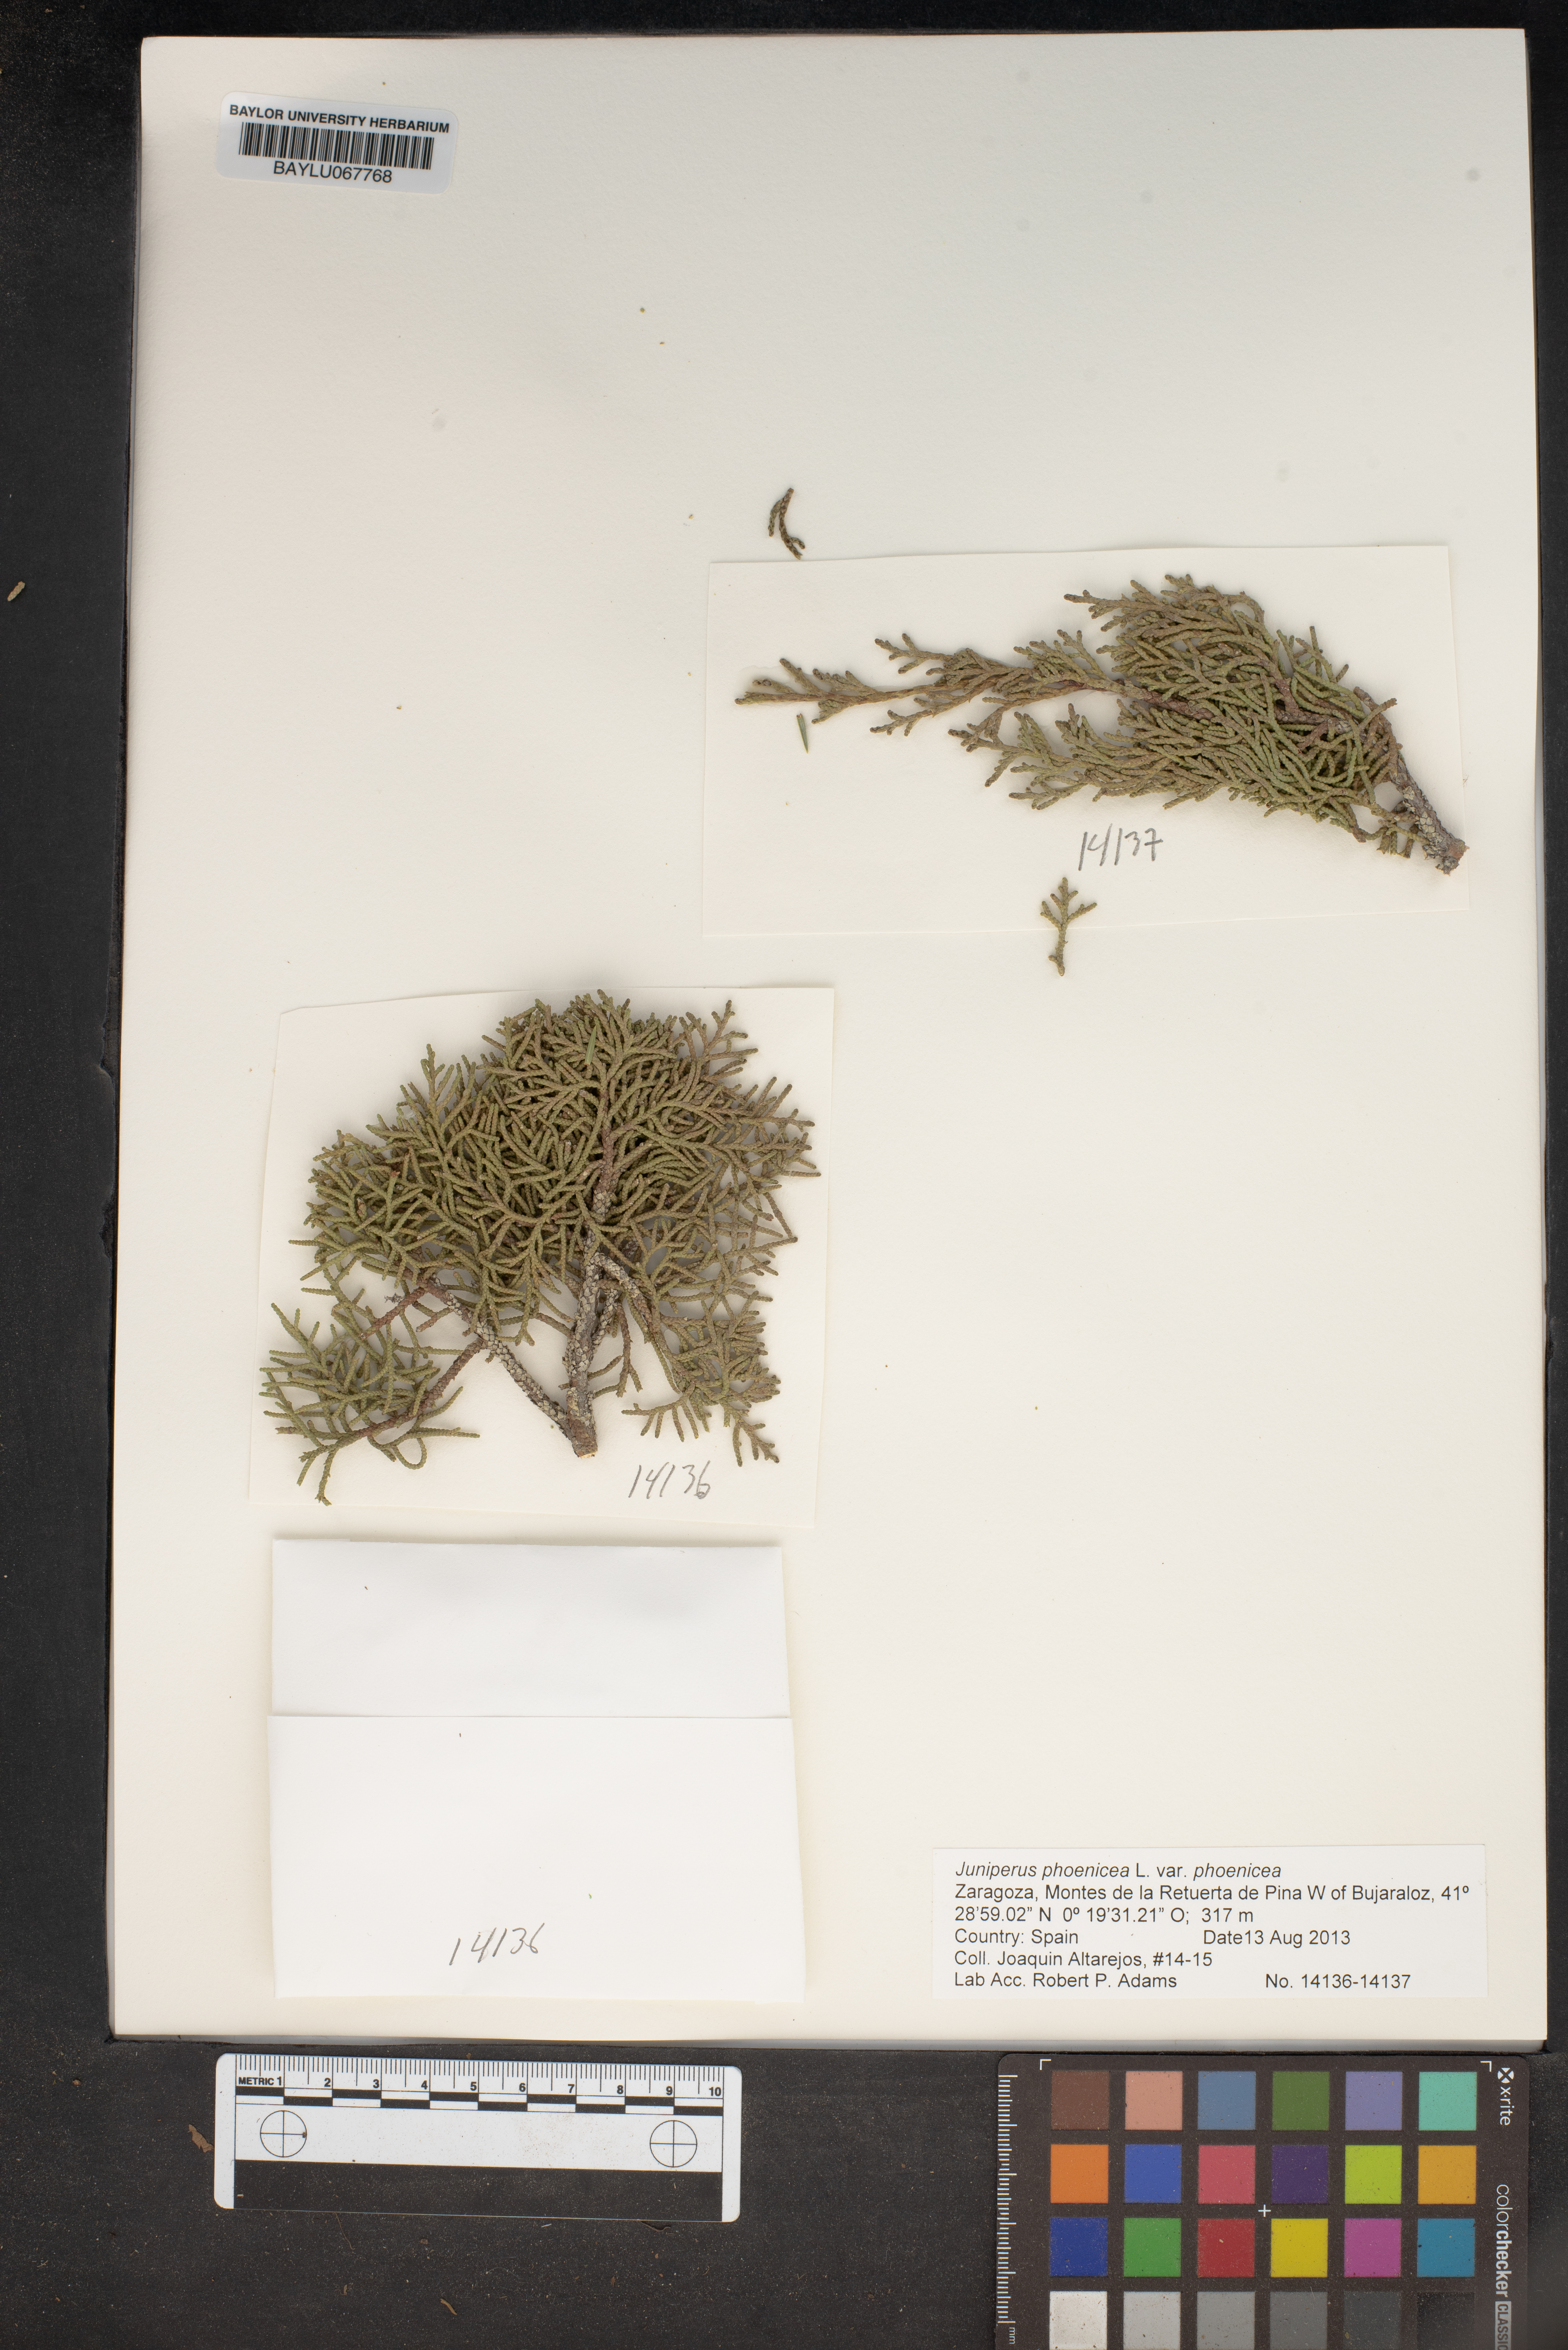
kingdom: Plantae
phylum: Tracheophyta
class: Pinopsida
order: Pinales
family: Cupressaceae
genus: Juniperus
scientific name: Juniperus phoenicea
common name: Phoenician juniper
